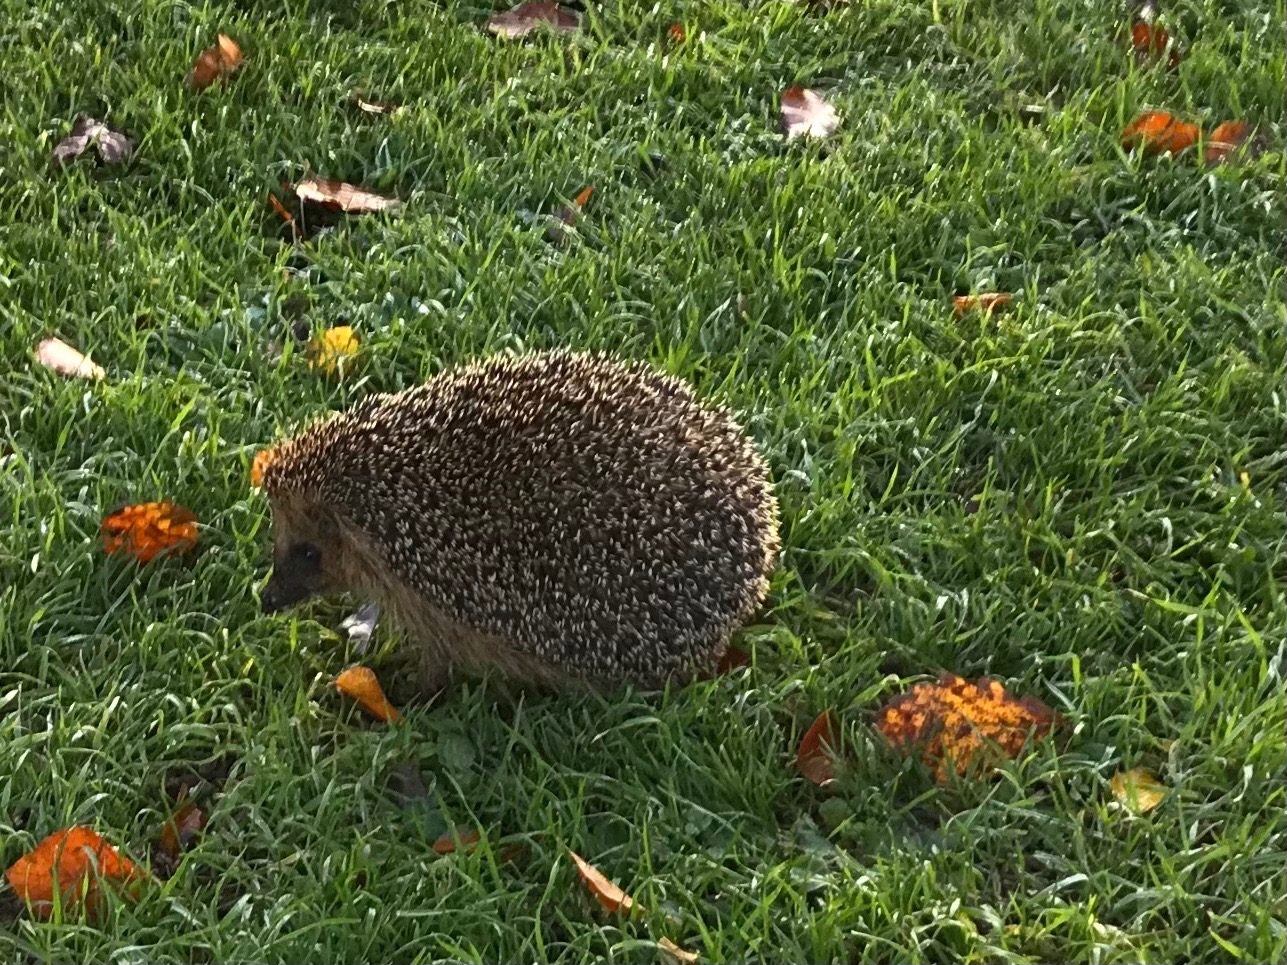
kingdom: Animalia
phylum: Chordata
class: Mammalia
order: Erinaceomorpha
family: Erinaceidae
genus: Erinaceus
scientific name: Erinaceus europaeus
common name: Pindsvin
